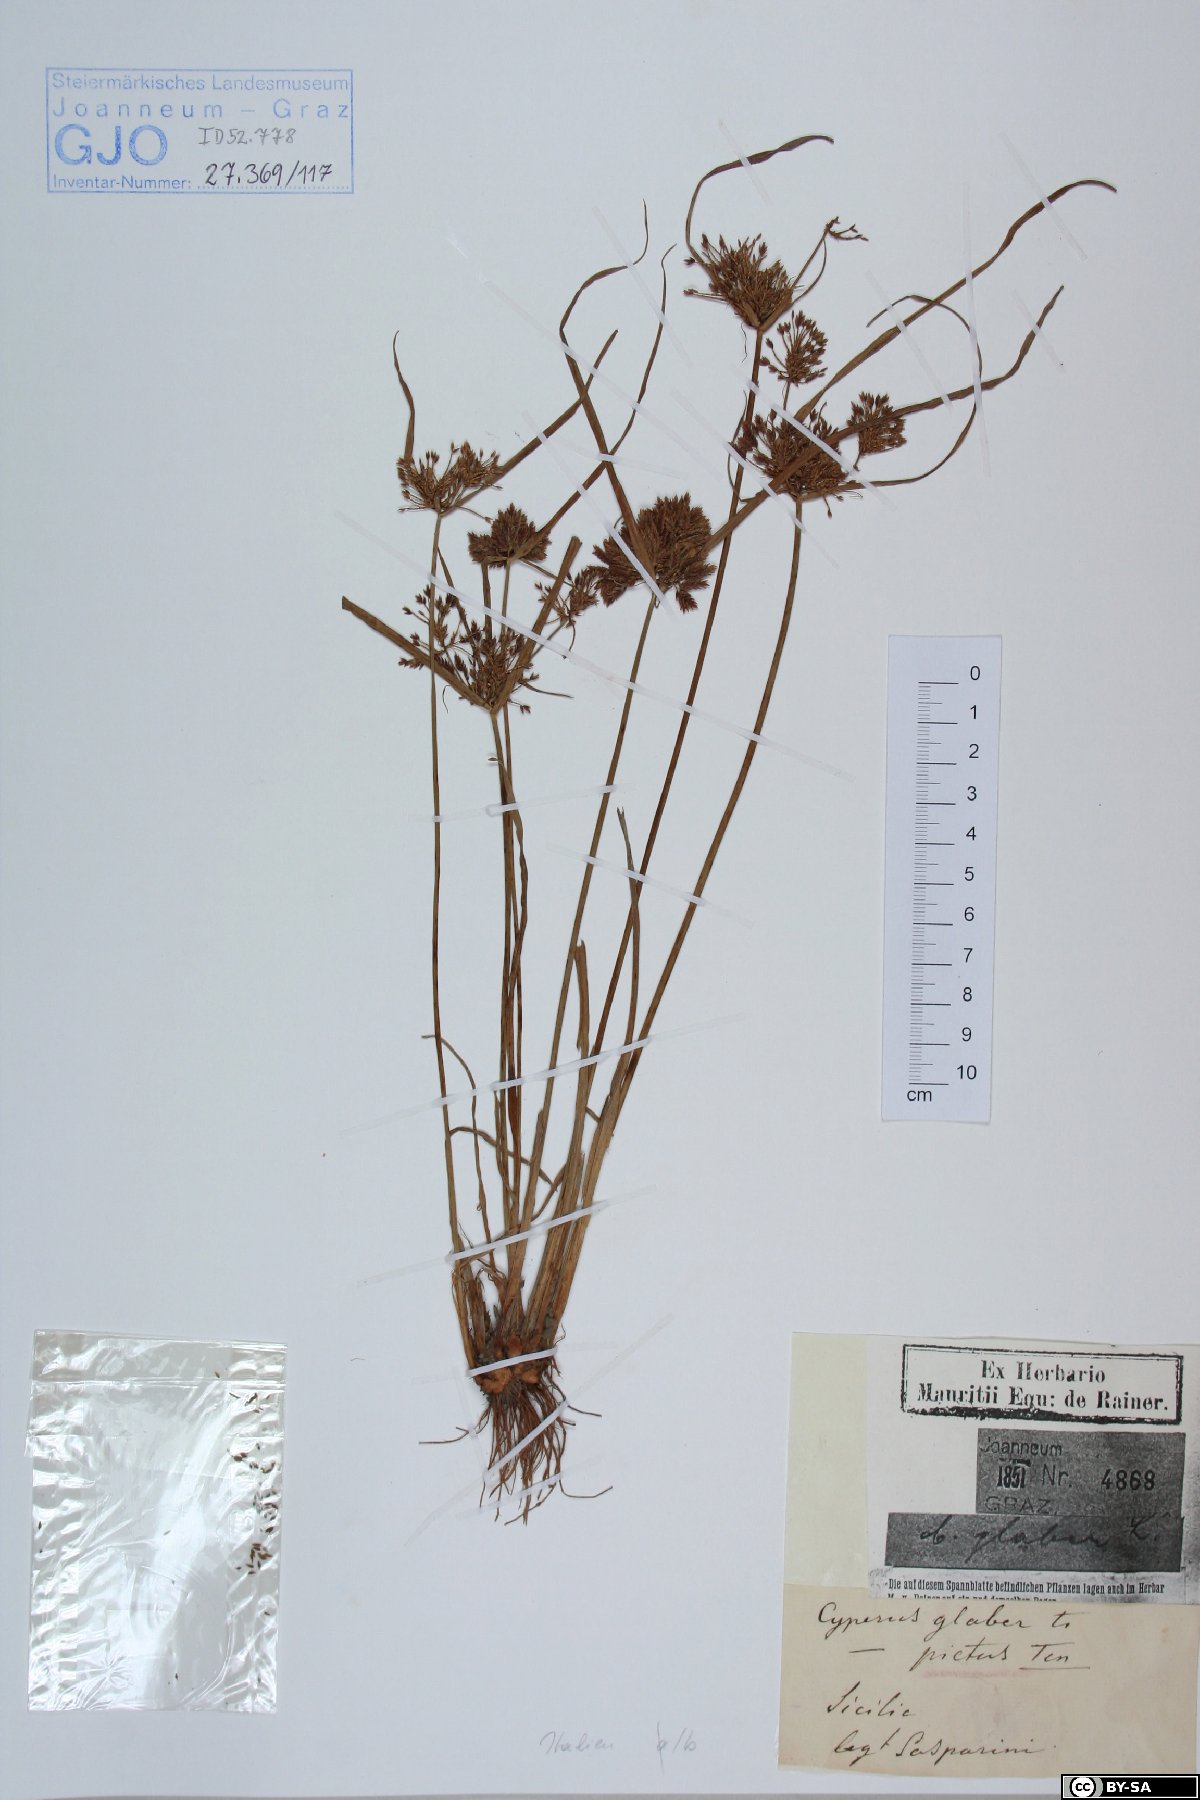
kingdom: Plantae
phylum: Tracheophyta
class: Liliopsida
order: Poales
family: Cyperaceae
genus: Cyperus
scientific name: Cyperus glaber
